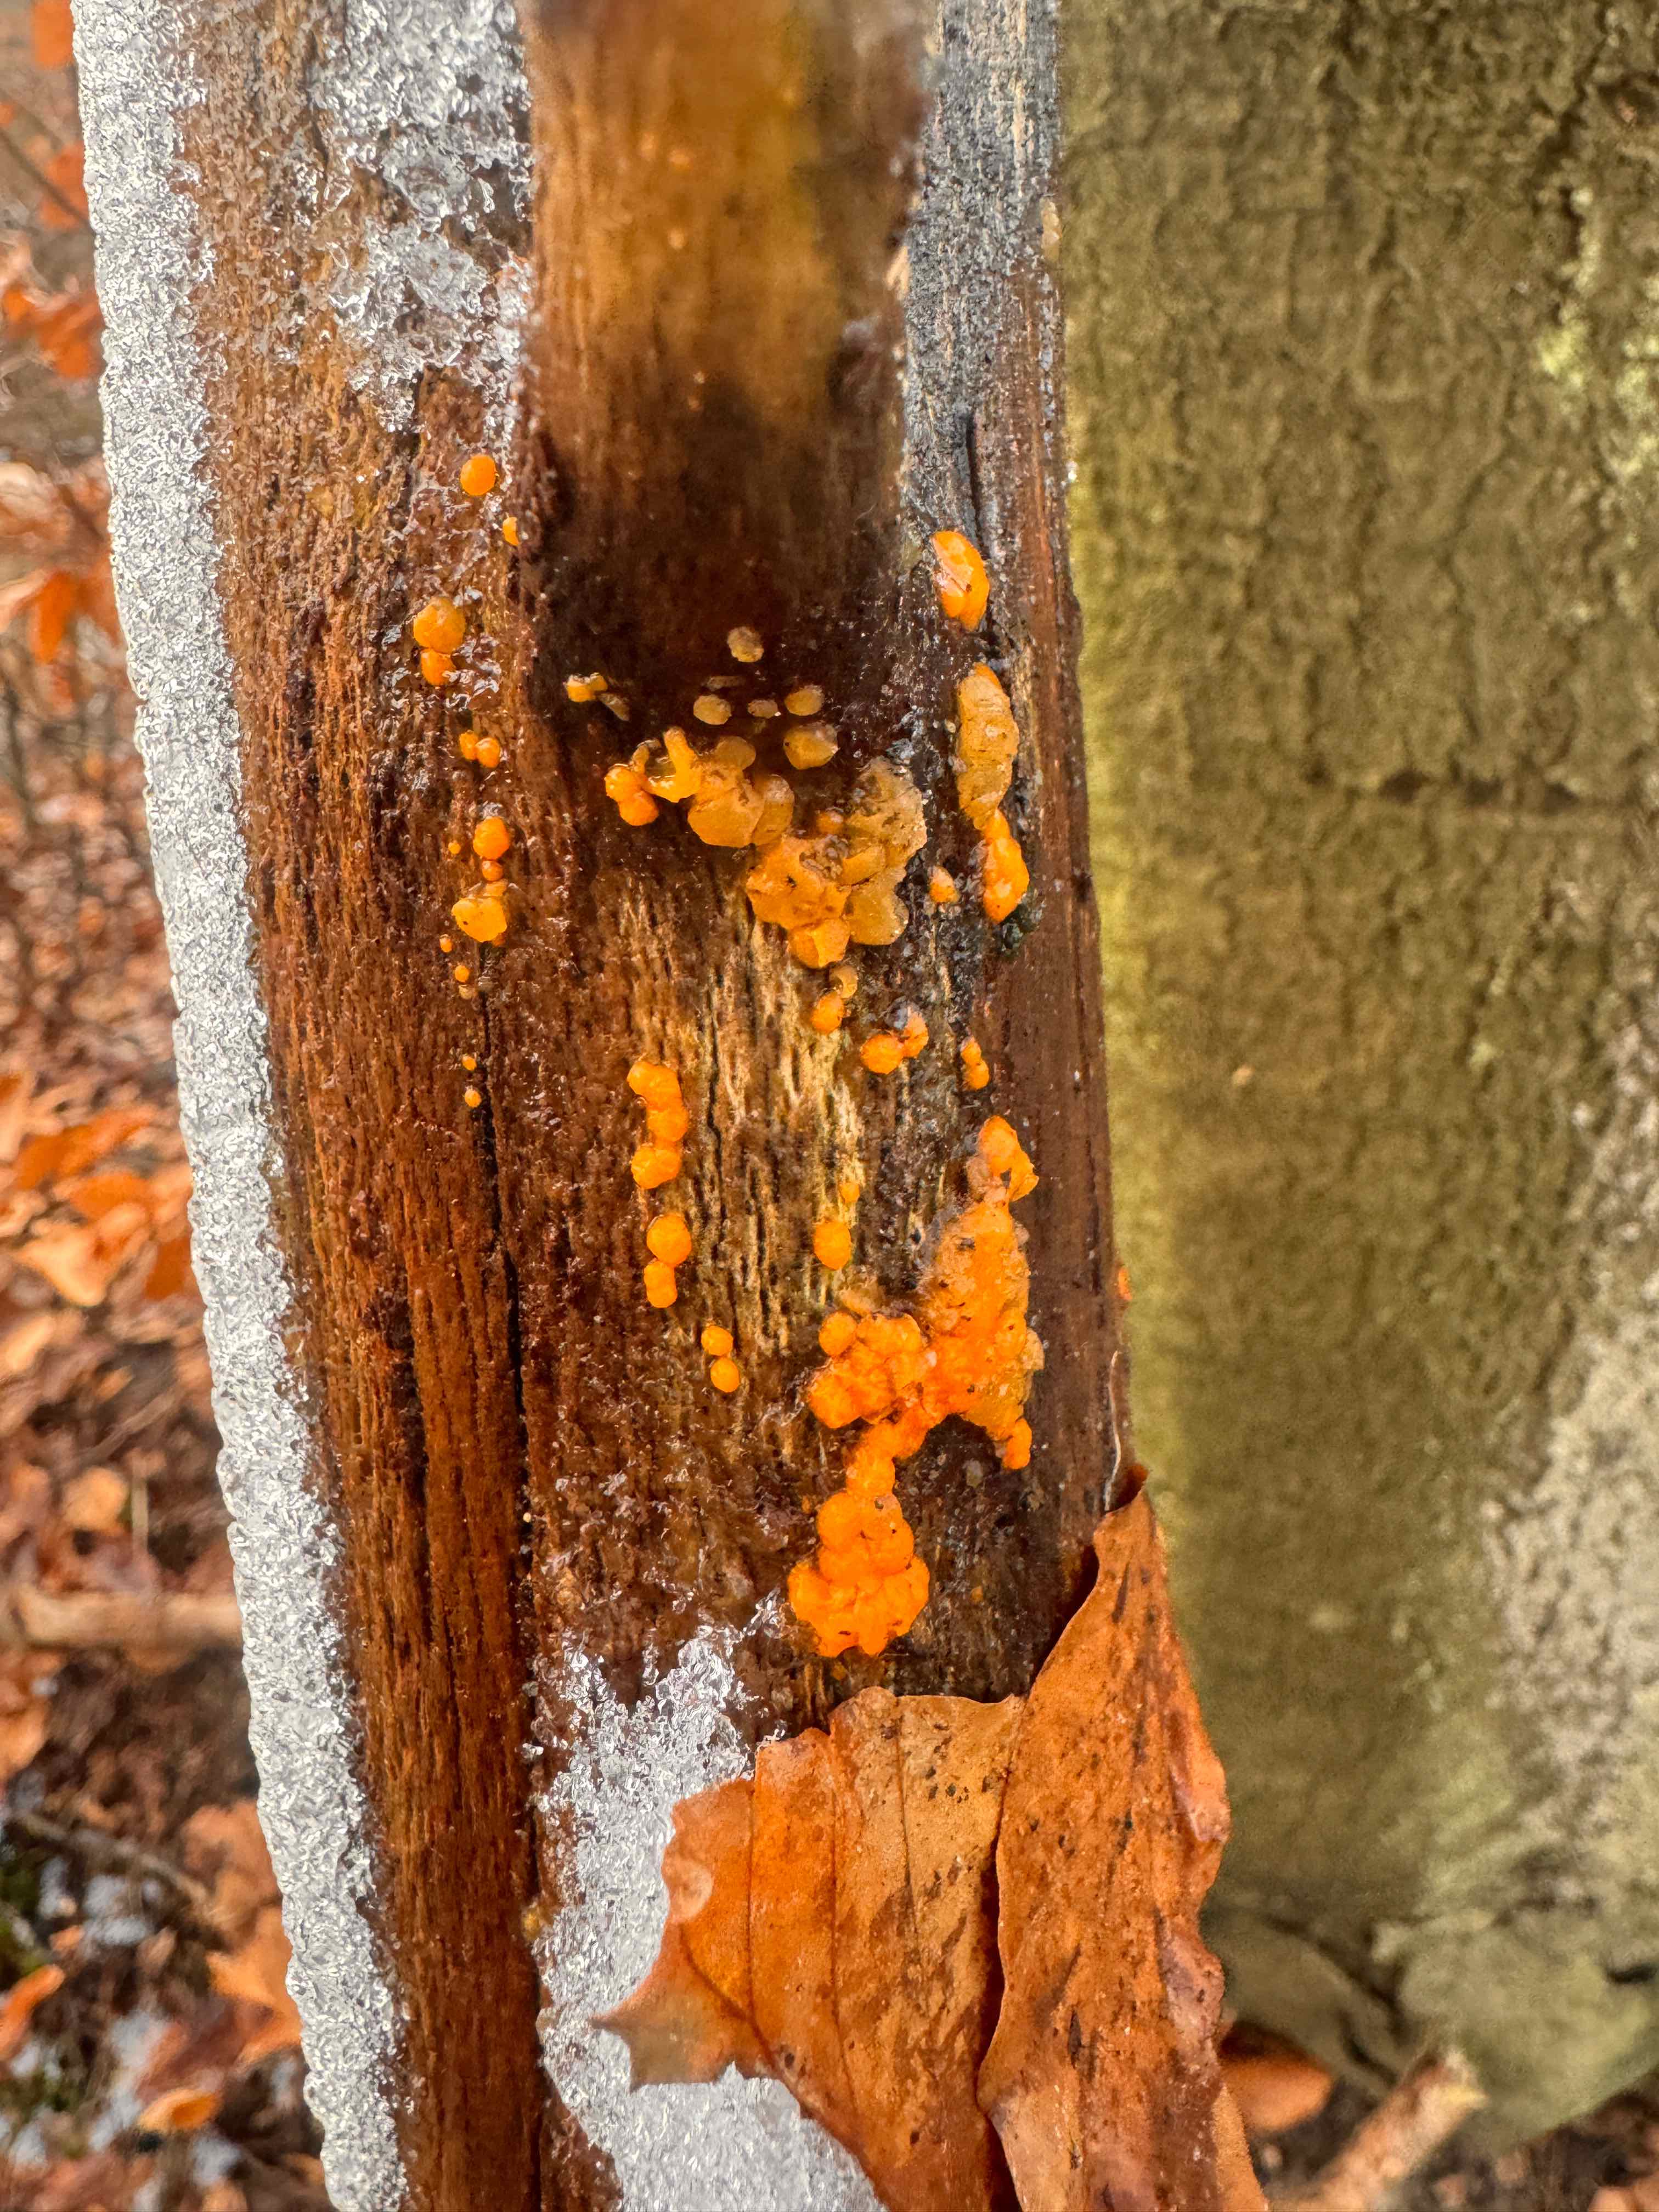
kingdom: Fungi
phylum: Basidiomycota
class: Dacrymycetes
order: Dacrymycetales
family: Dacrymycetaceae
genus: Dacrymyces
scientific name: Dacrymyces stillatus
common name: almindelig tåresvamp
